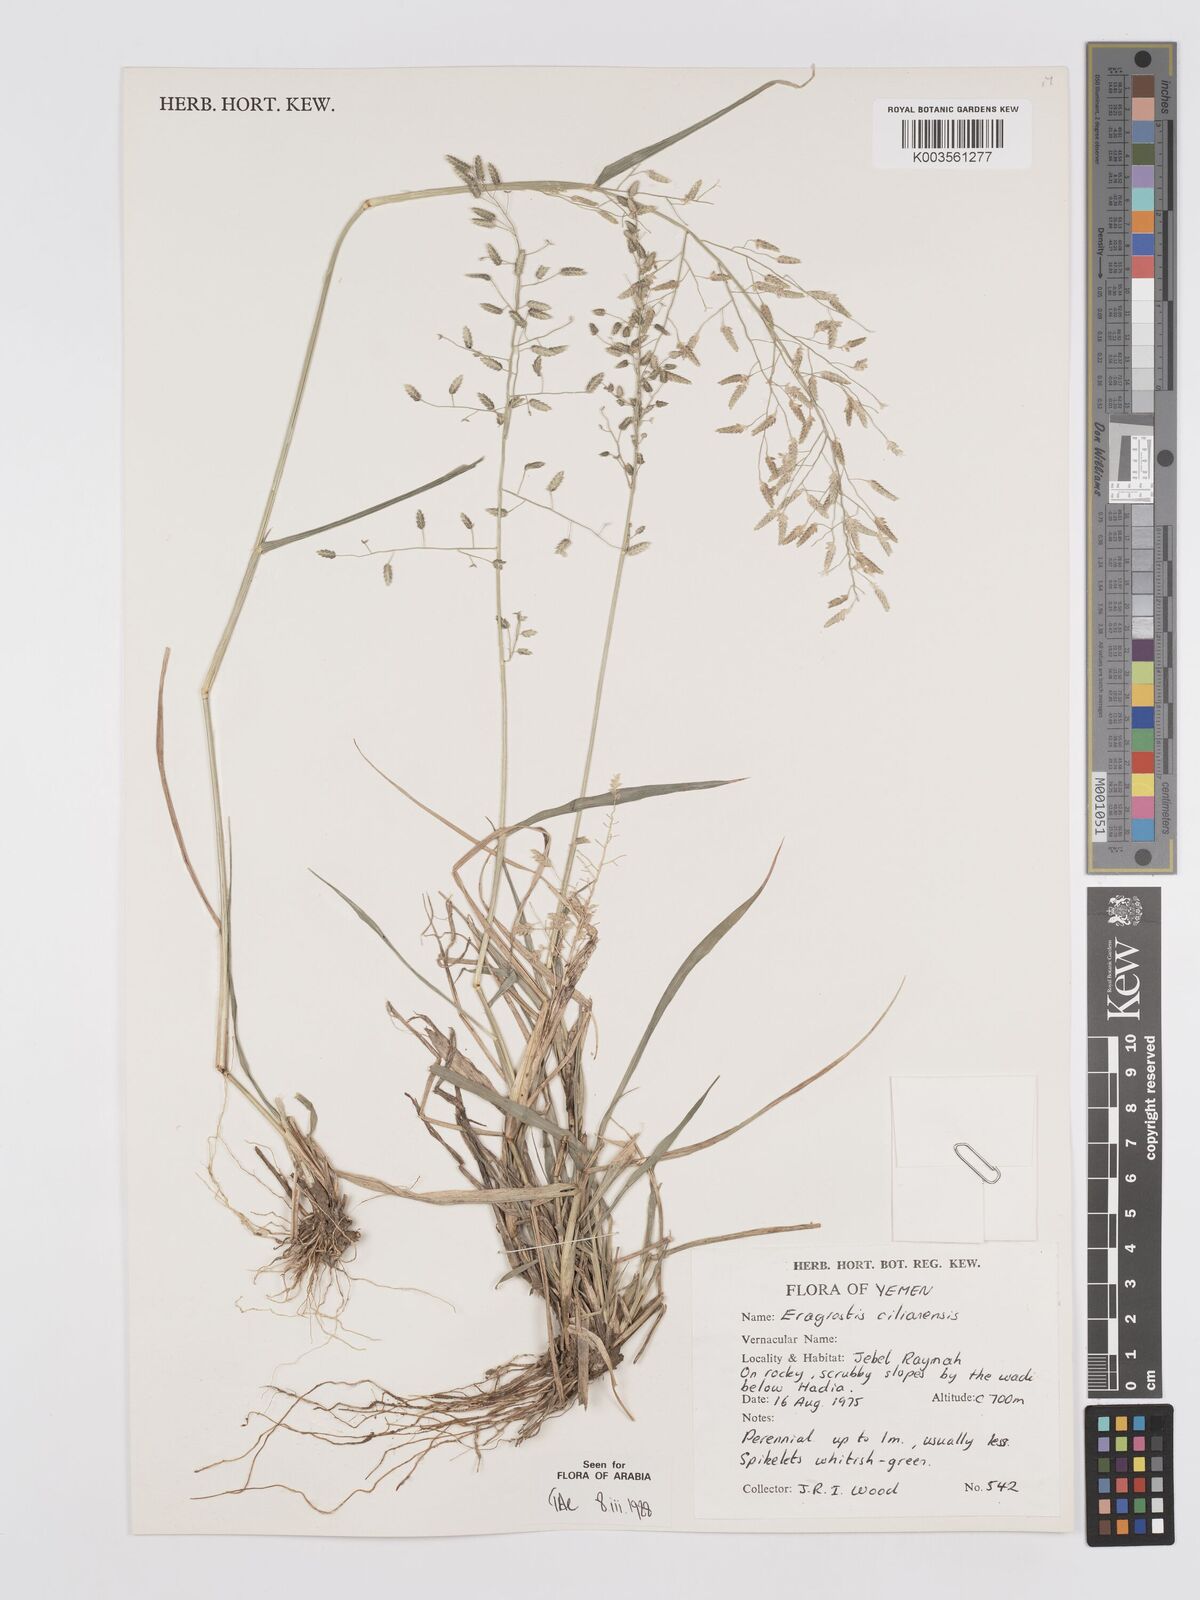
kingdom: Plantae
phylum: Tracheophyta
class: Liliopsida
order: Poales
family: Poaceae
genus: Eragrostis
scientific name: Eragrostis cilianensis
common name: Stinkgrass
